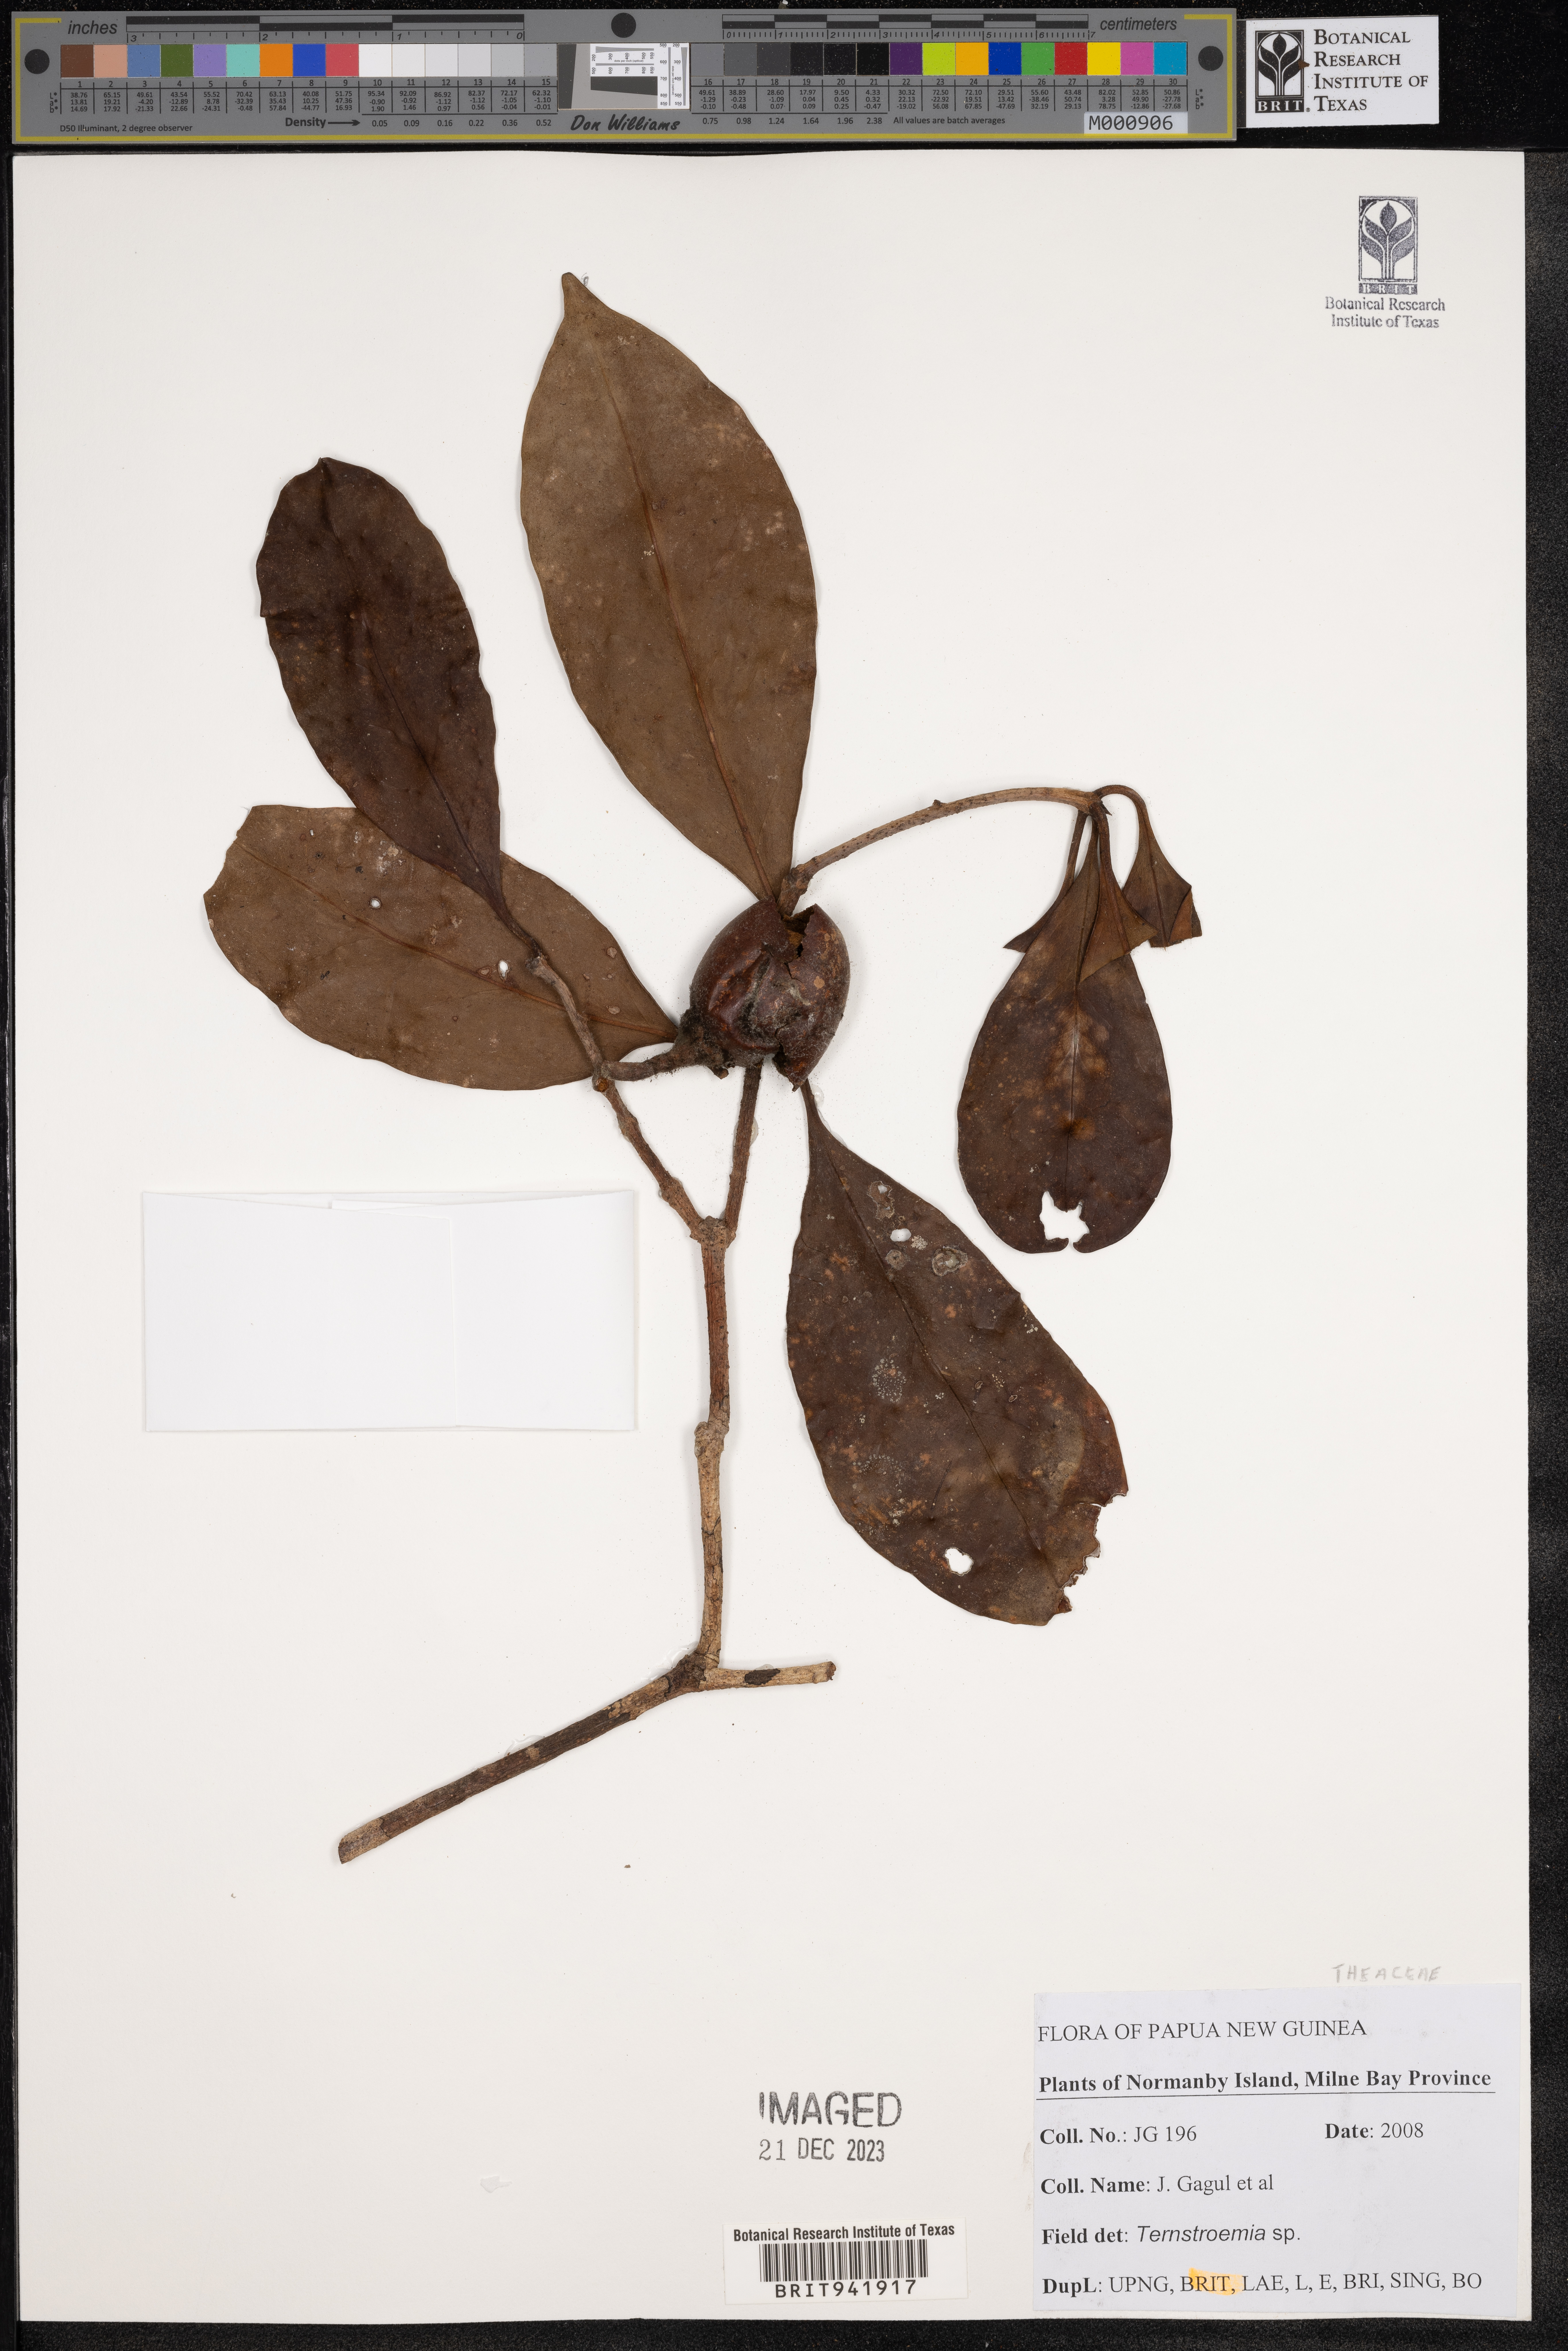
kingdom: Plantae
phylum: Tracheophyta
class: Magnoliopsida
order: Ericales
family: Theaceae
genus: Terustroemia
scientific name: Terustroemia
